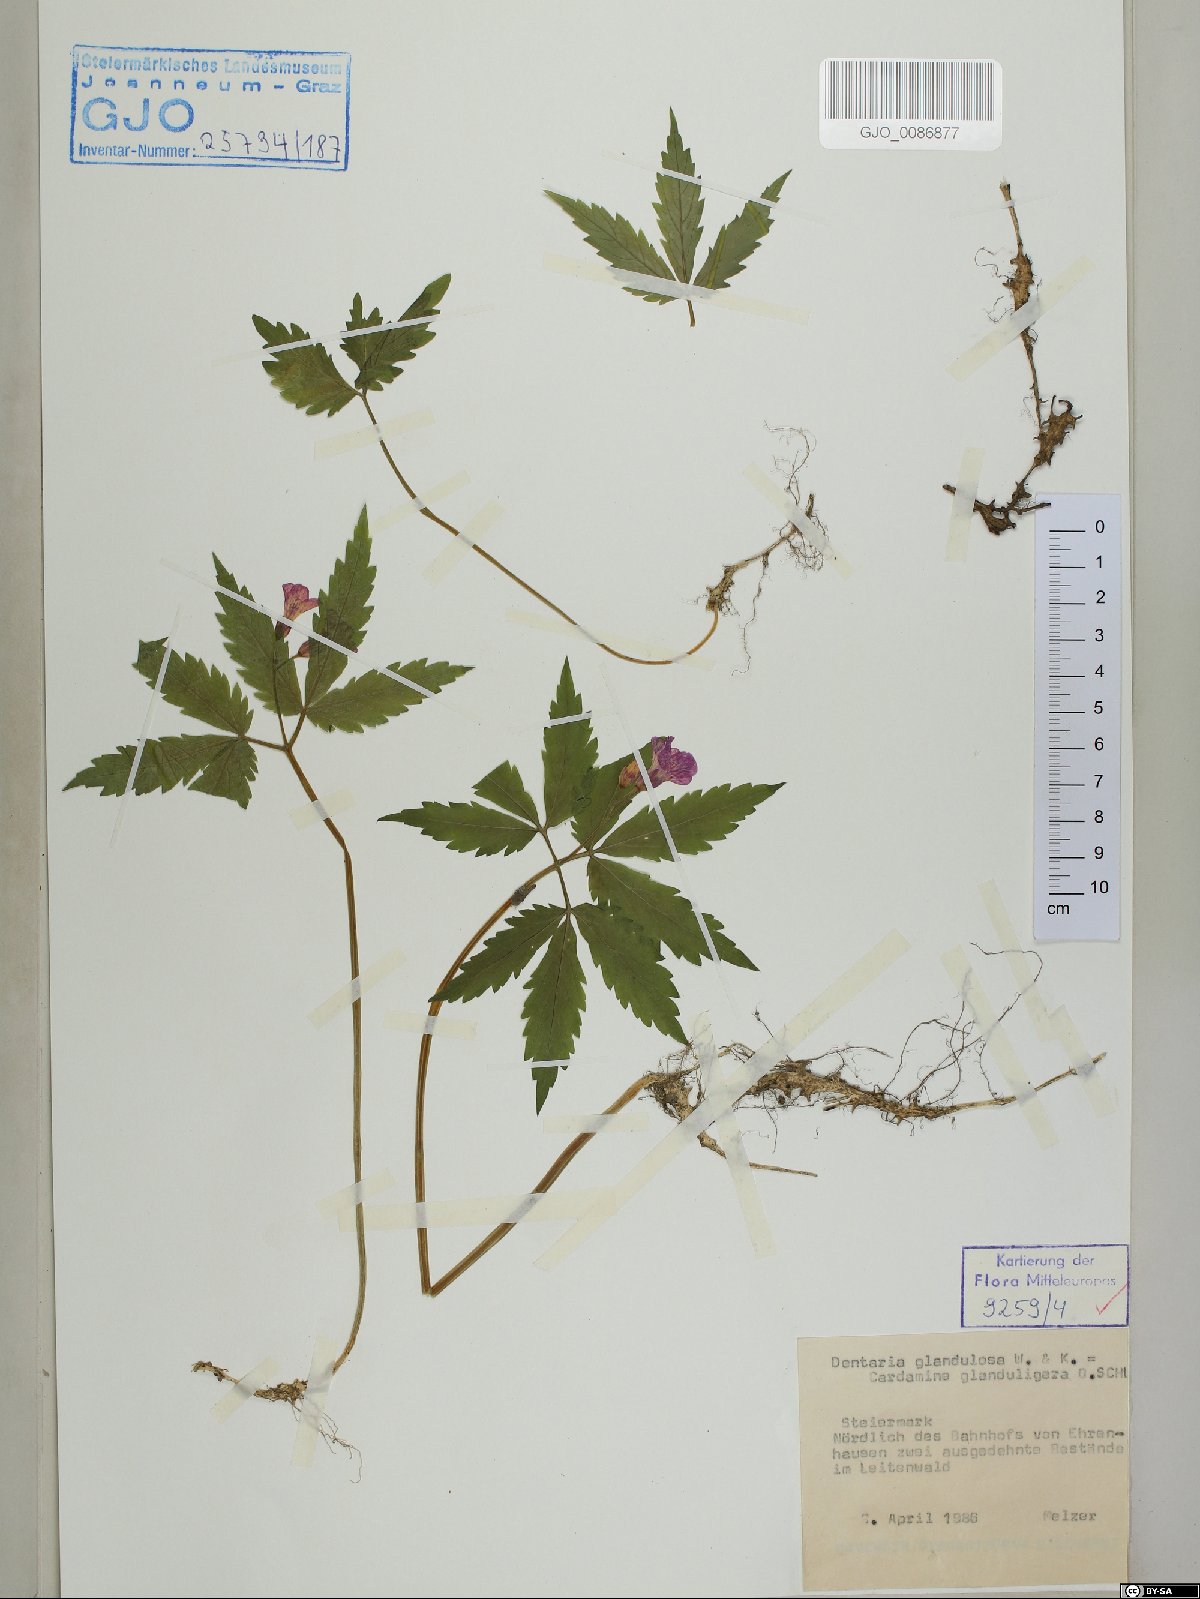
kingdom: Plantae
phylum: Tracheophyta
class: Magnoliopsida
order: Brassicales
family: Brassicaceae
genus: Cardamine
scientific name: Cardamine glanduligera
